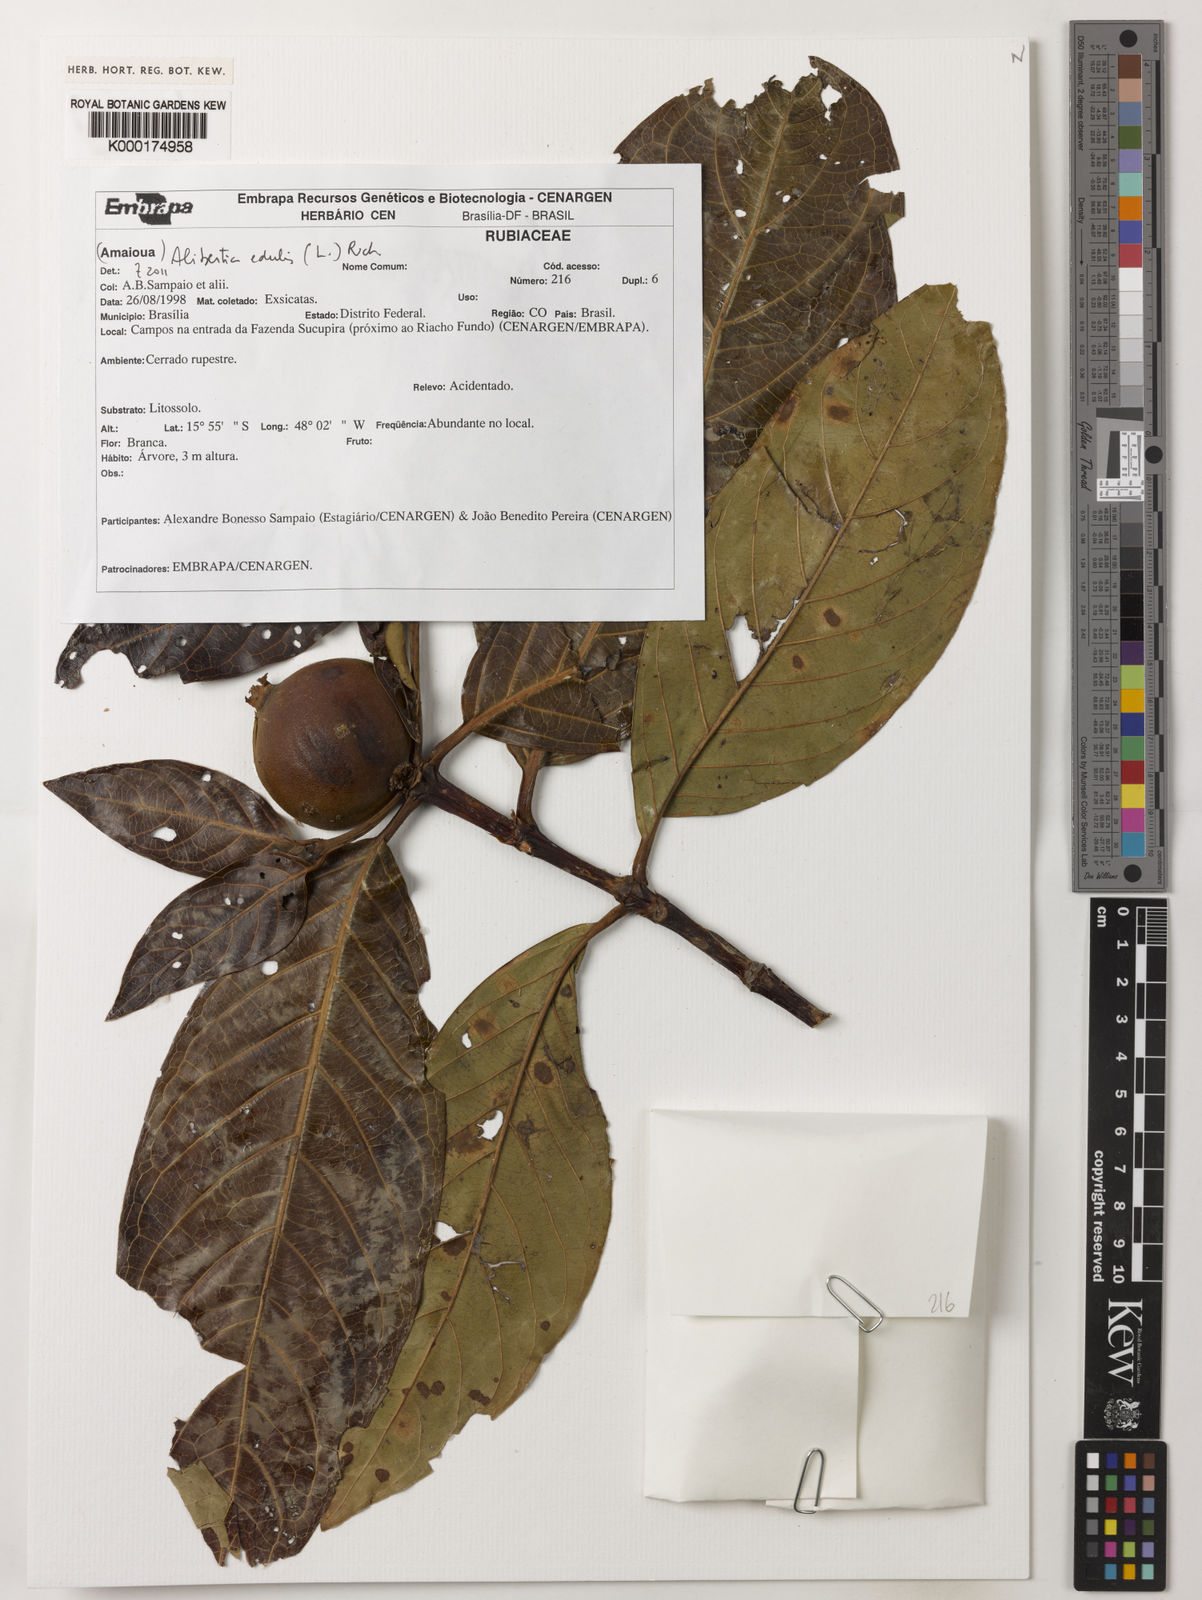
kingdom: Plantae
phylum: Tracheophyta
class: Magnoliopsida
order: Gentianales
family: Rubiaceae
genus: Alibertia
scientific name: Alibertia edulis
